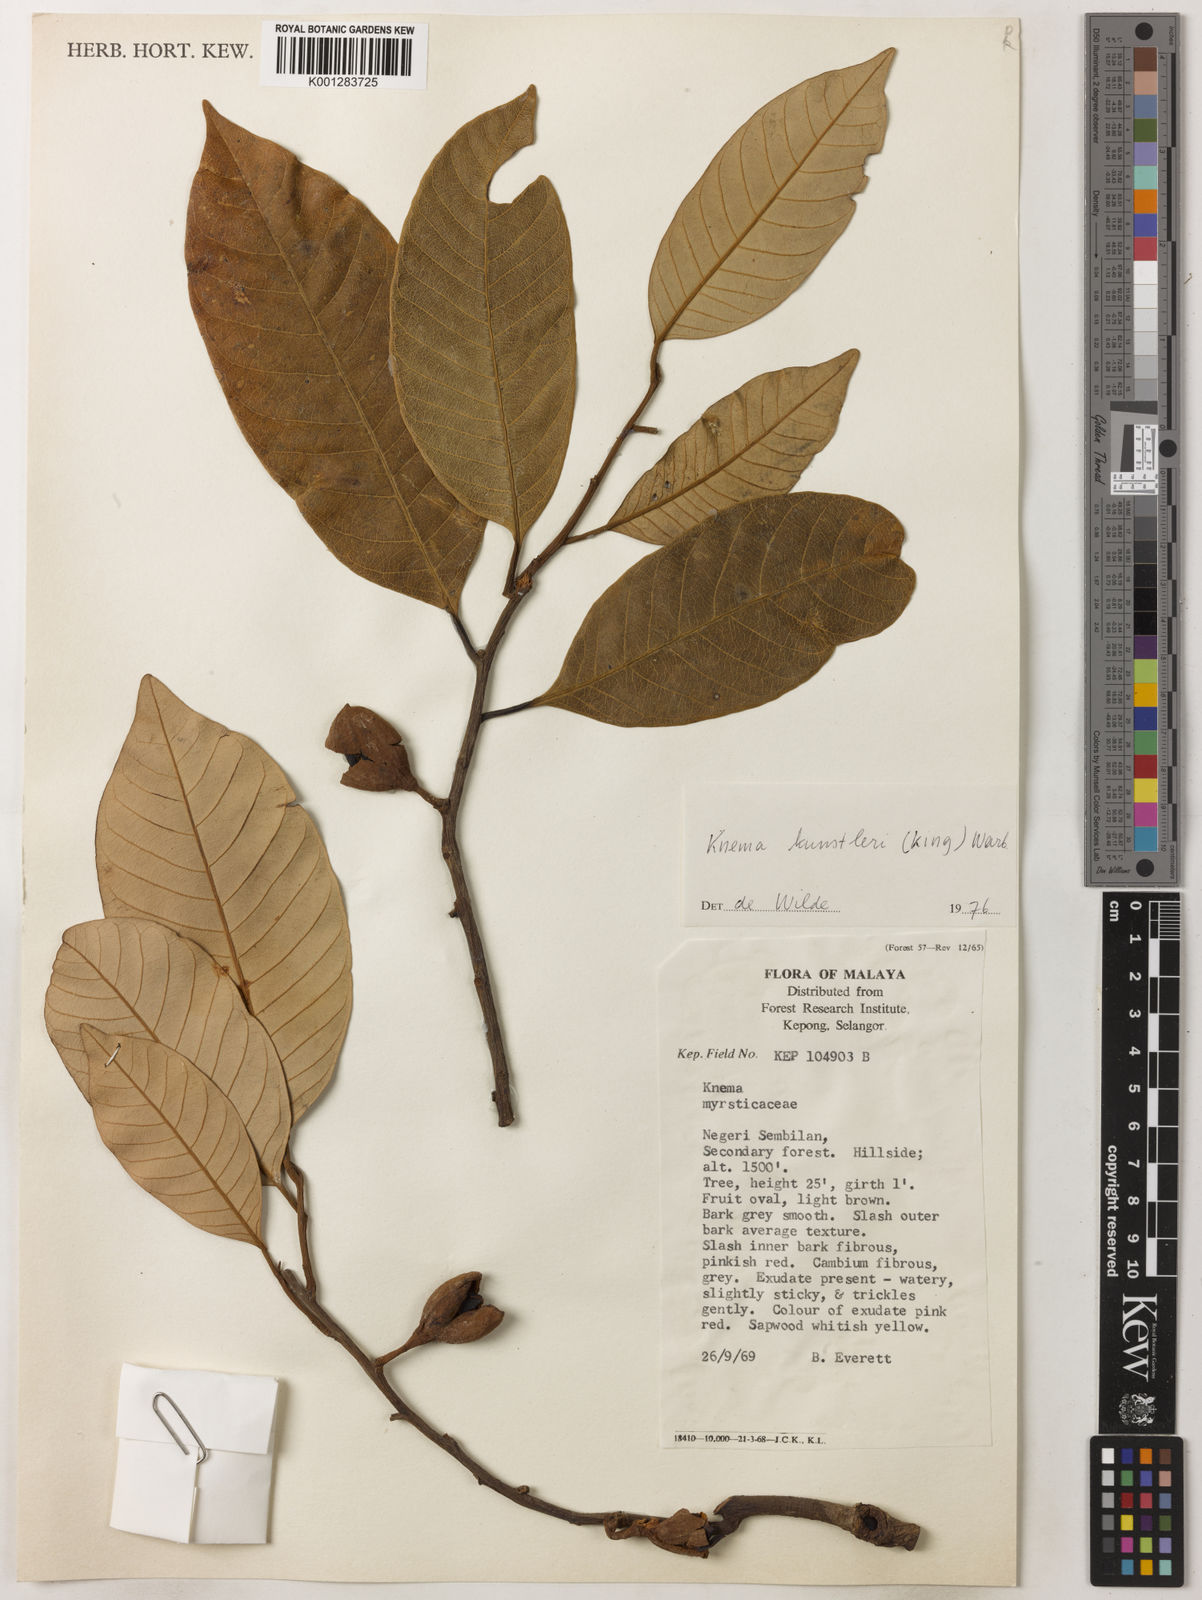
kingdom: Plantae
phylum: Tracheophyta
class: Magnoliopsida
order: Magnoliales
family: Myristicaceae
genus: Knema
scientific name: Knema kunstleri
